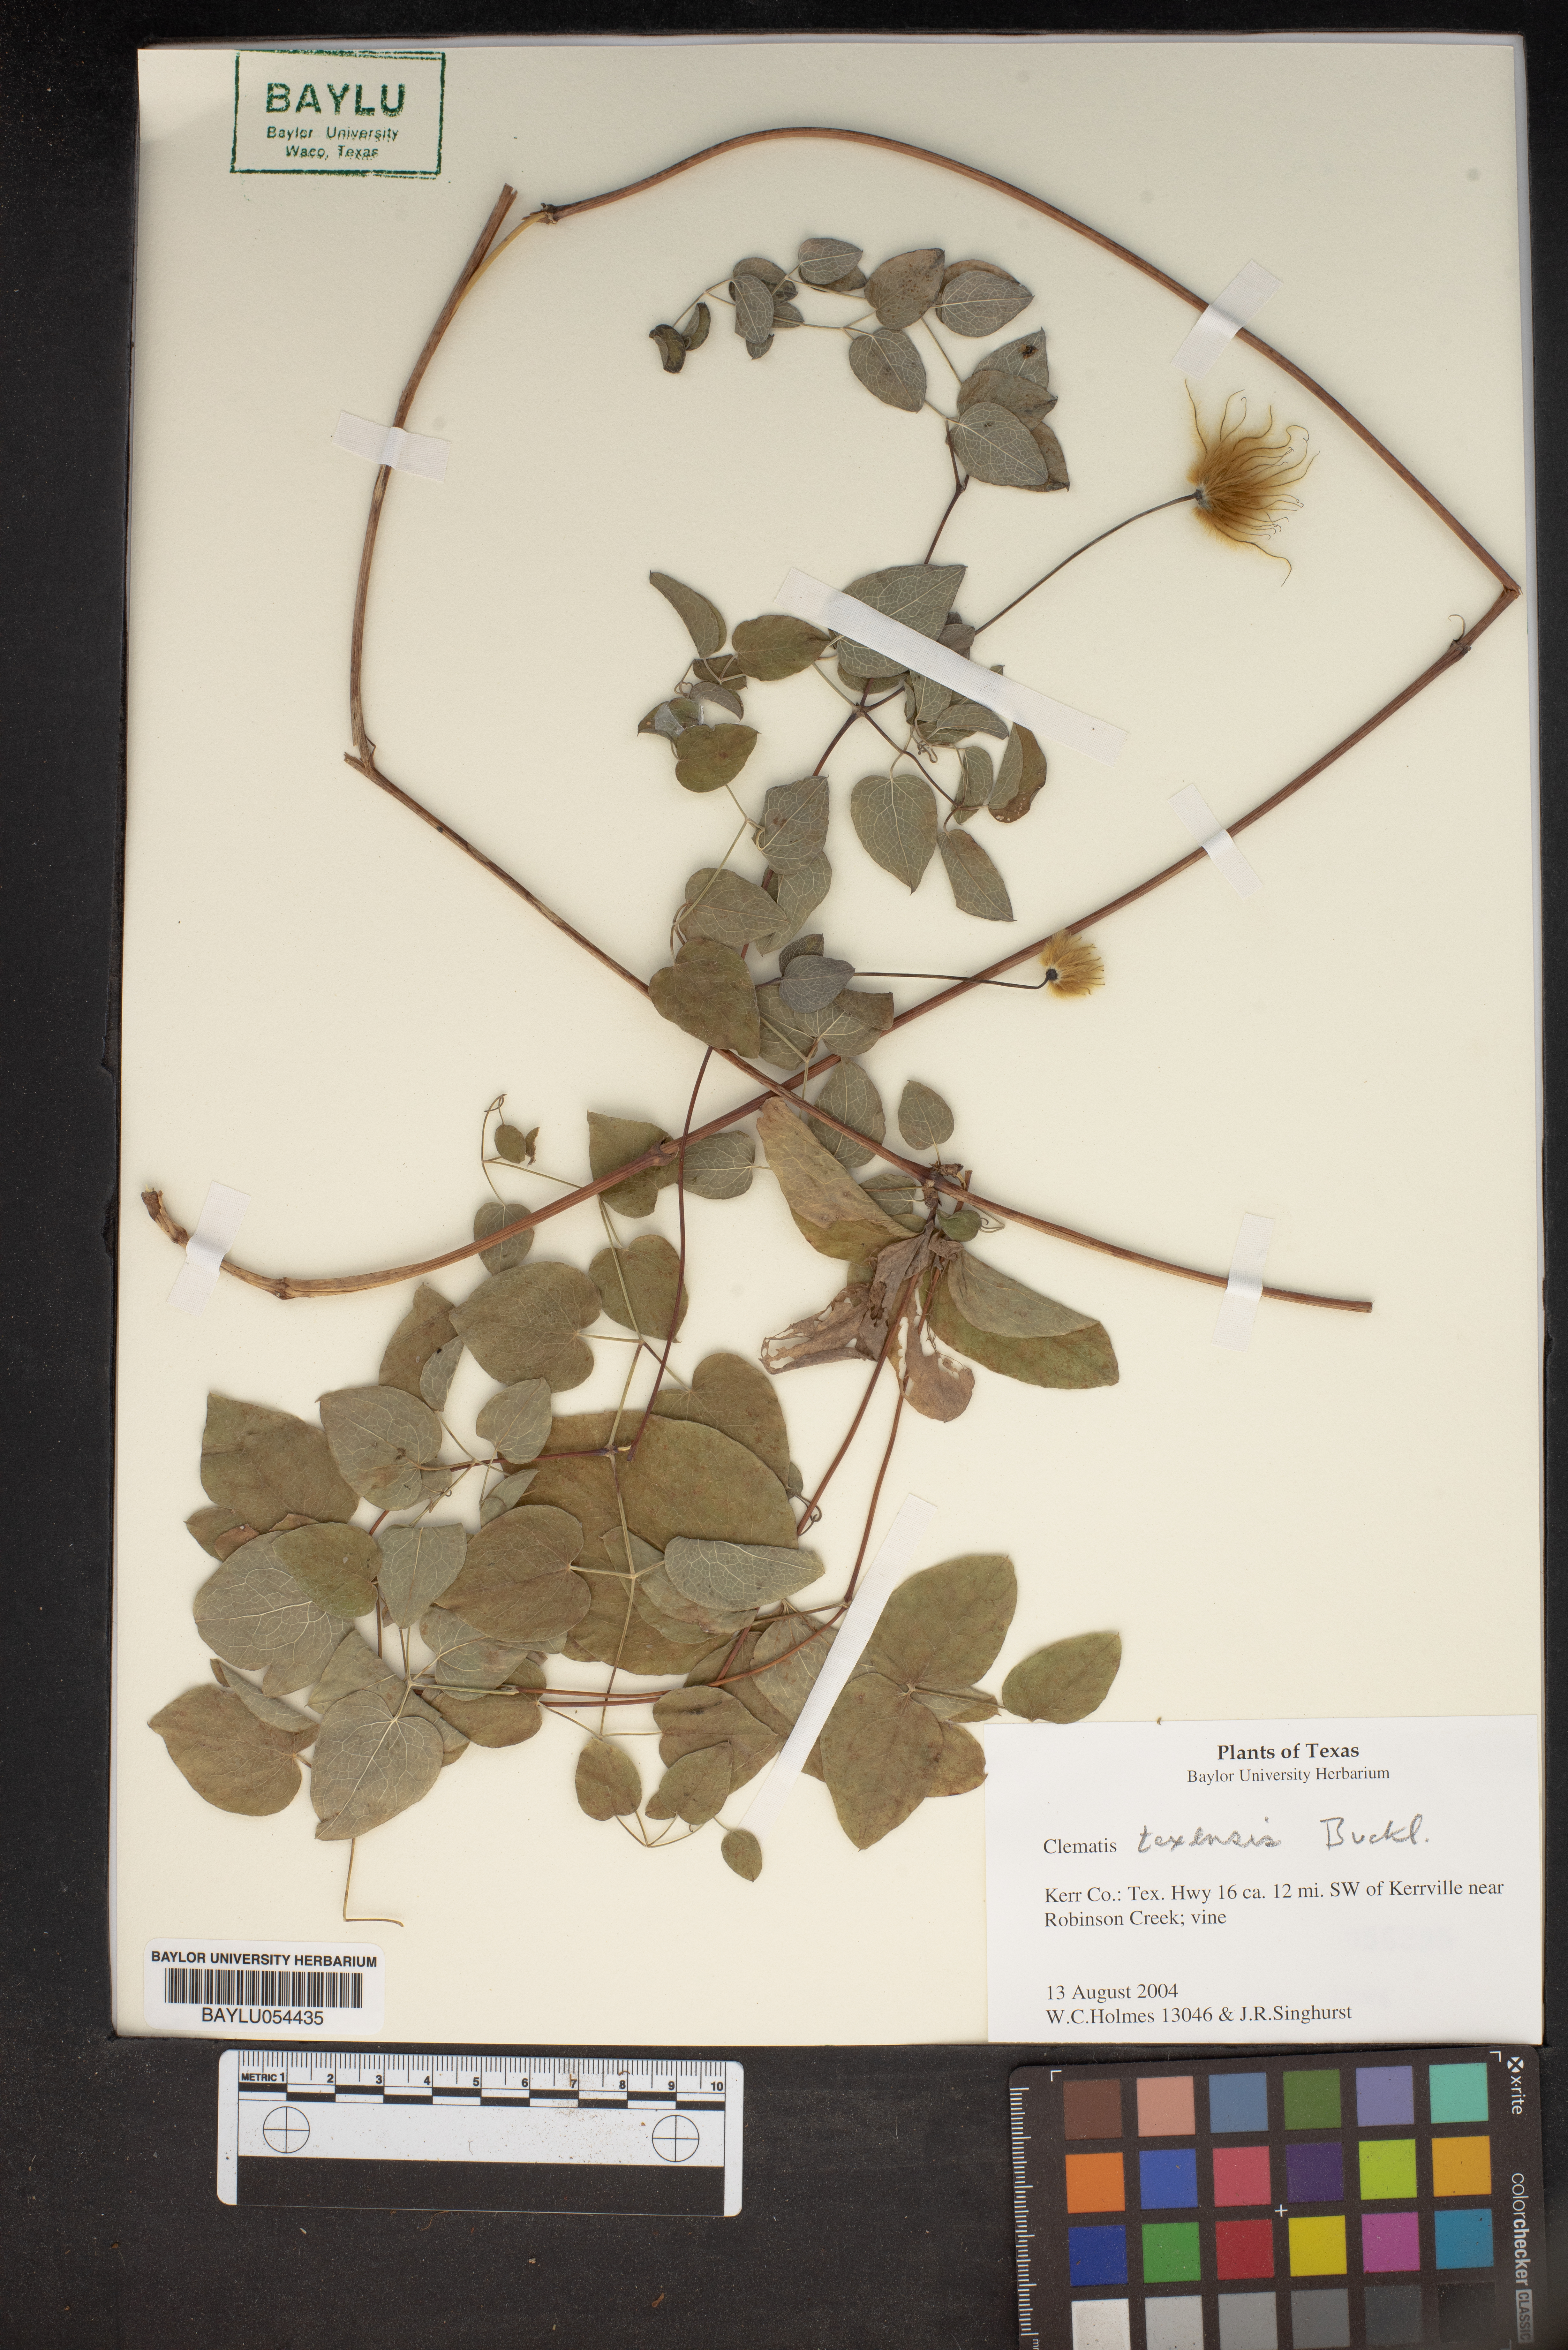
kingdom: Plantae
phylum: Tracheophyta
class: Magnoliopsida
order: Ranunculales
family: Ranunculaceae
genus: Clematis
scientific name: Clematis texensis
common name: Crimson clematis
